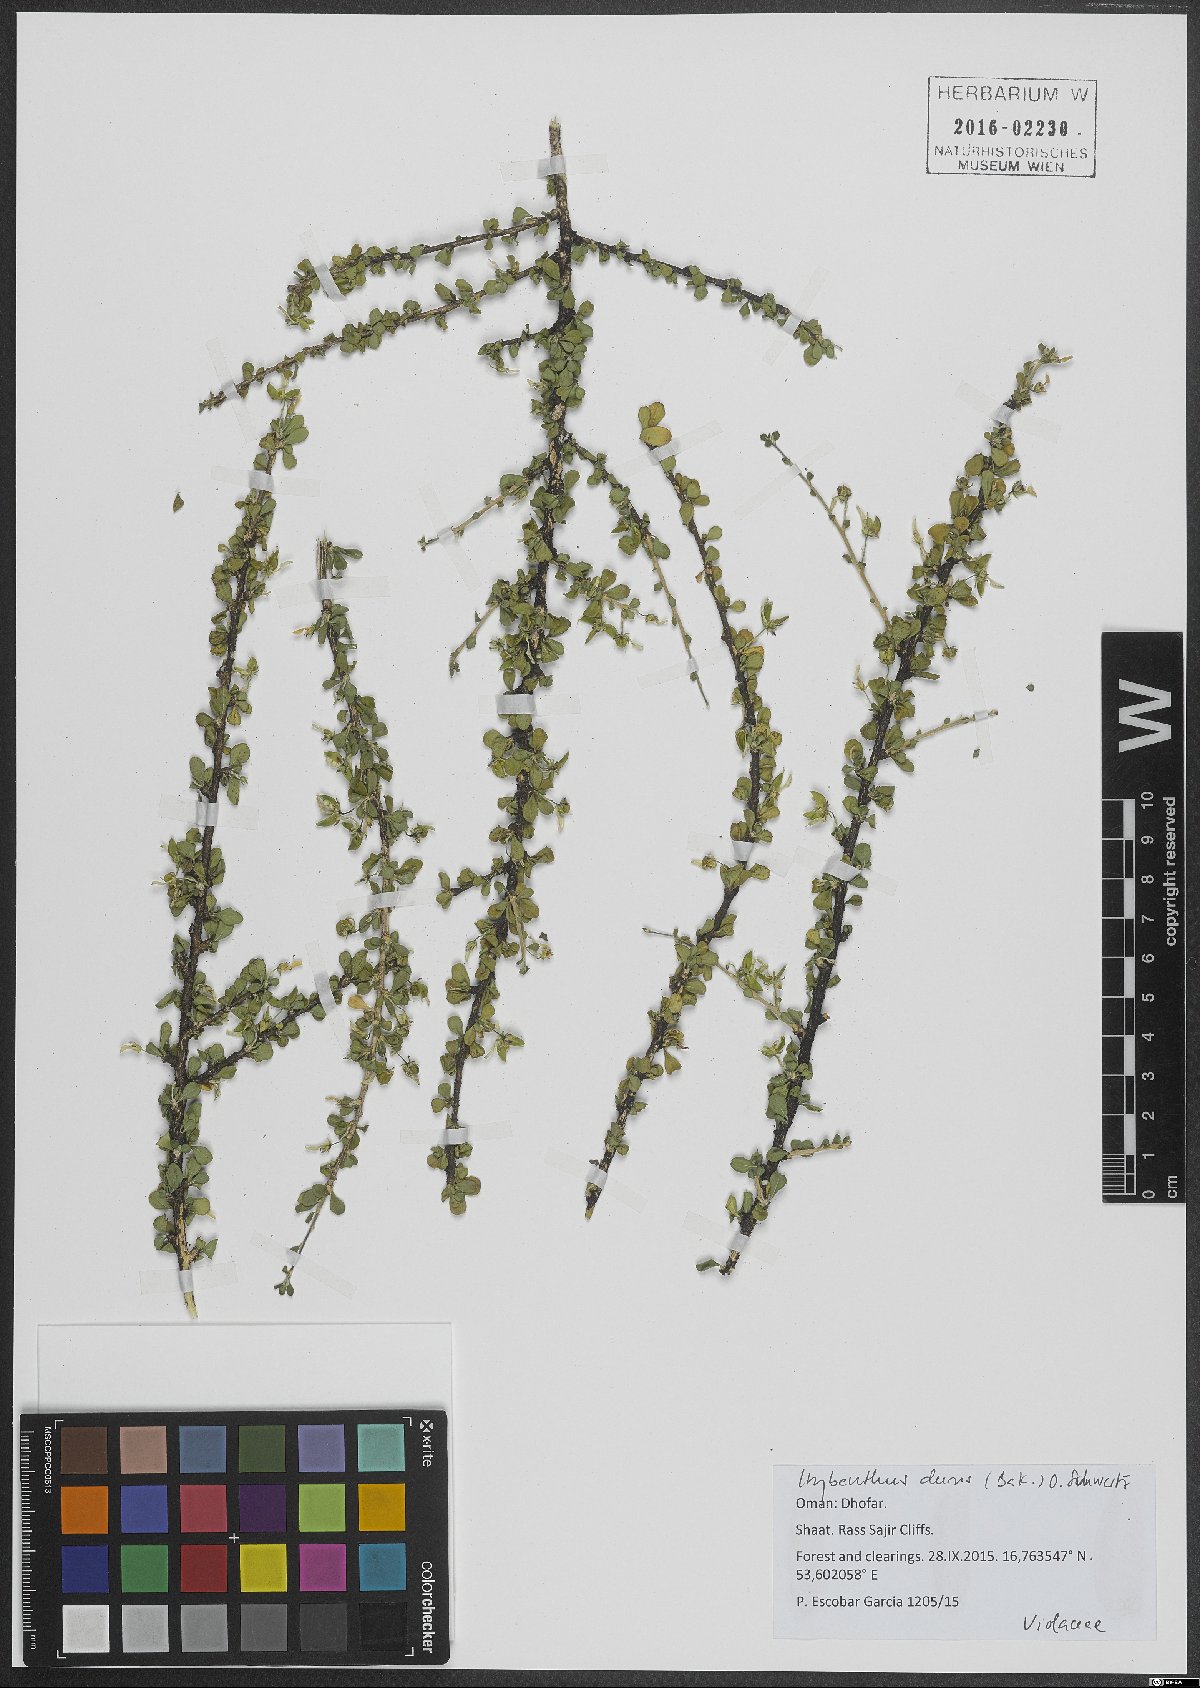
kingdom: Plantae
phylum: Tracheophyta
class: Magnoliopsida
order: Malpighiales
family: Violaceae
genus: Hybanthus
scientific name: Hybanthus durus
